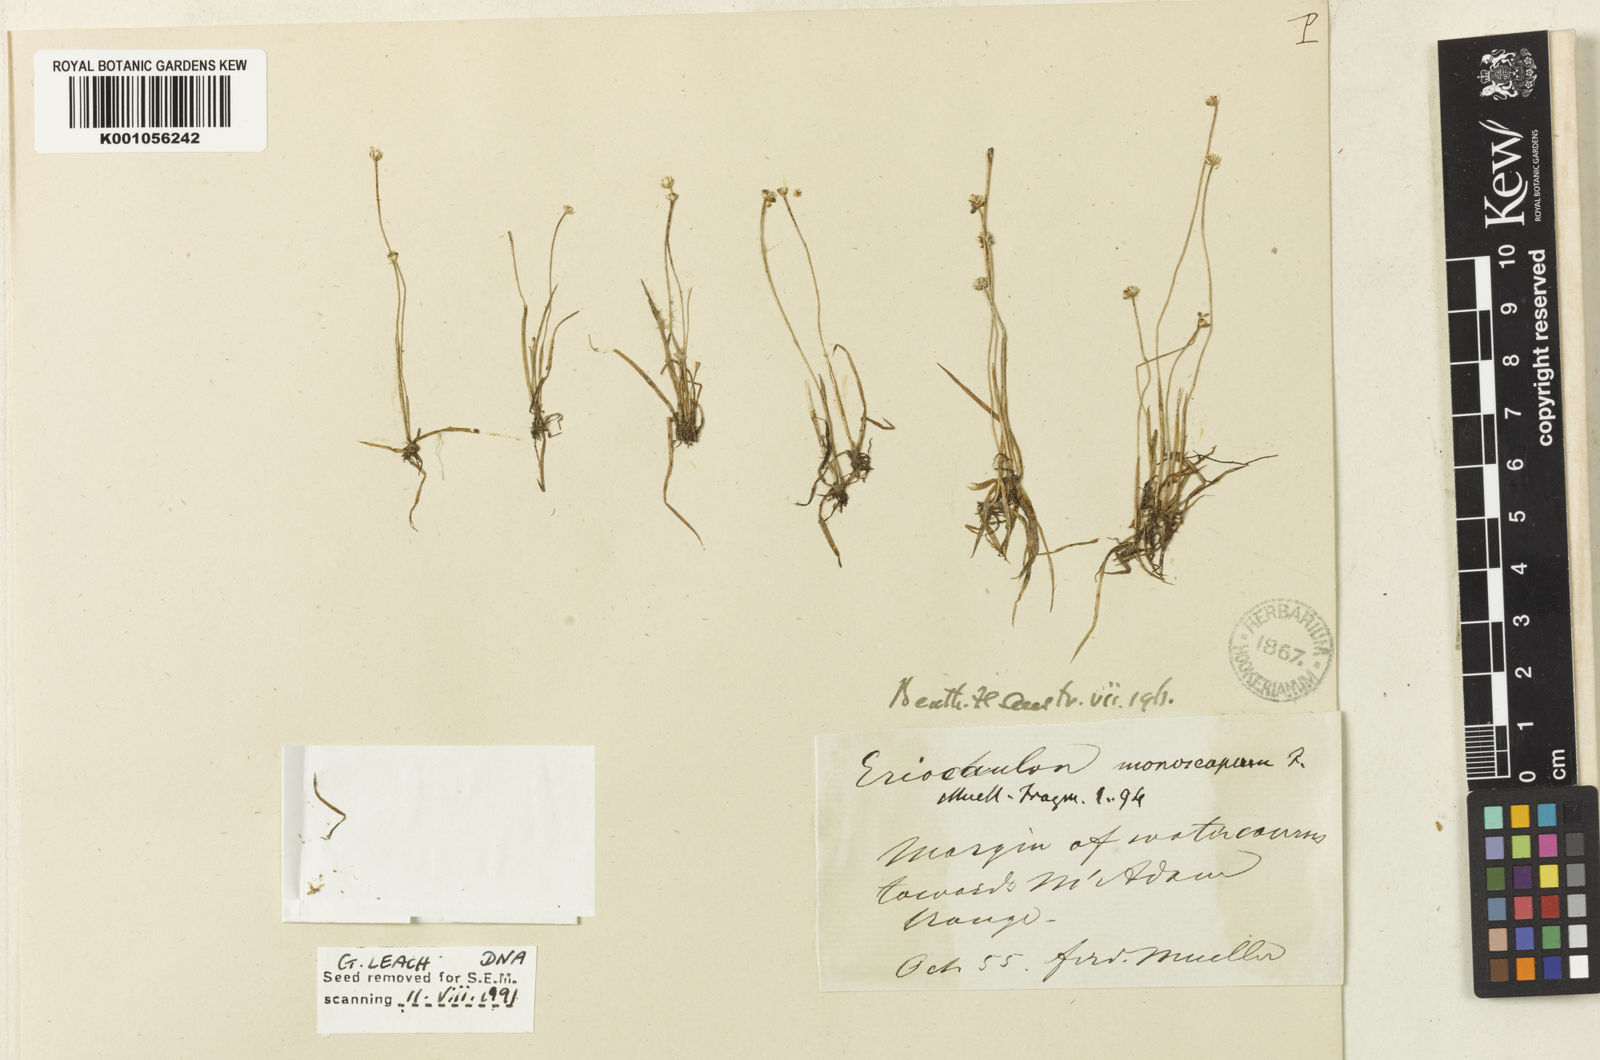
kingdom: Plantae
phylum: Tracheophyta
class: Liliopsida
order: Poales
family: Eriocaulaceae
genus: Eriocaulon
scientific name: Eriocaulon monoscapum
